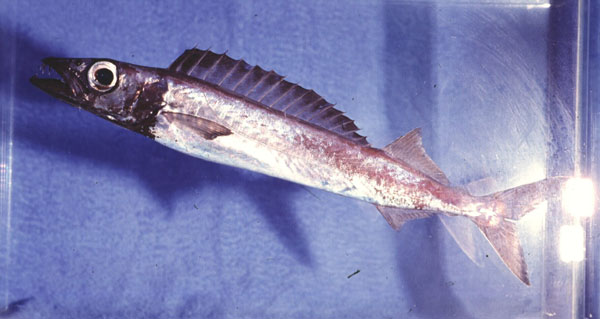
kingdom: Animalia
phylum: Chordata
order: Perciformes
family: Gempylidae
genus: Promethichthys
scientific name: Promethichthys prometheus
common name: Roudi escolar
